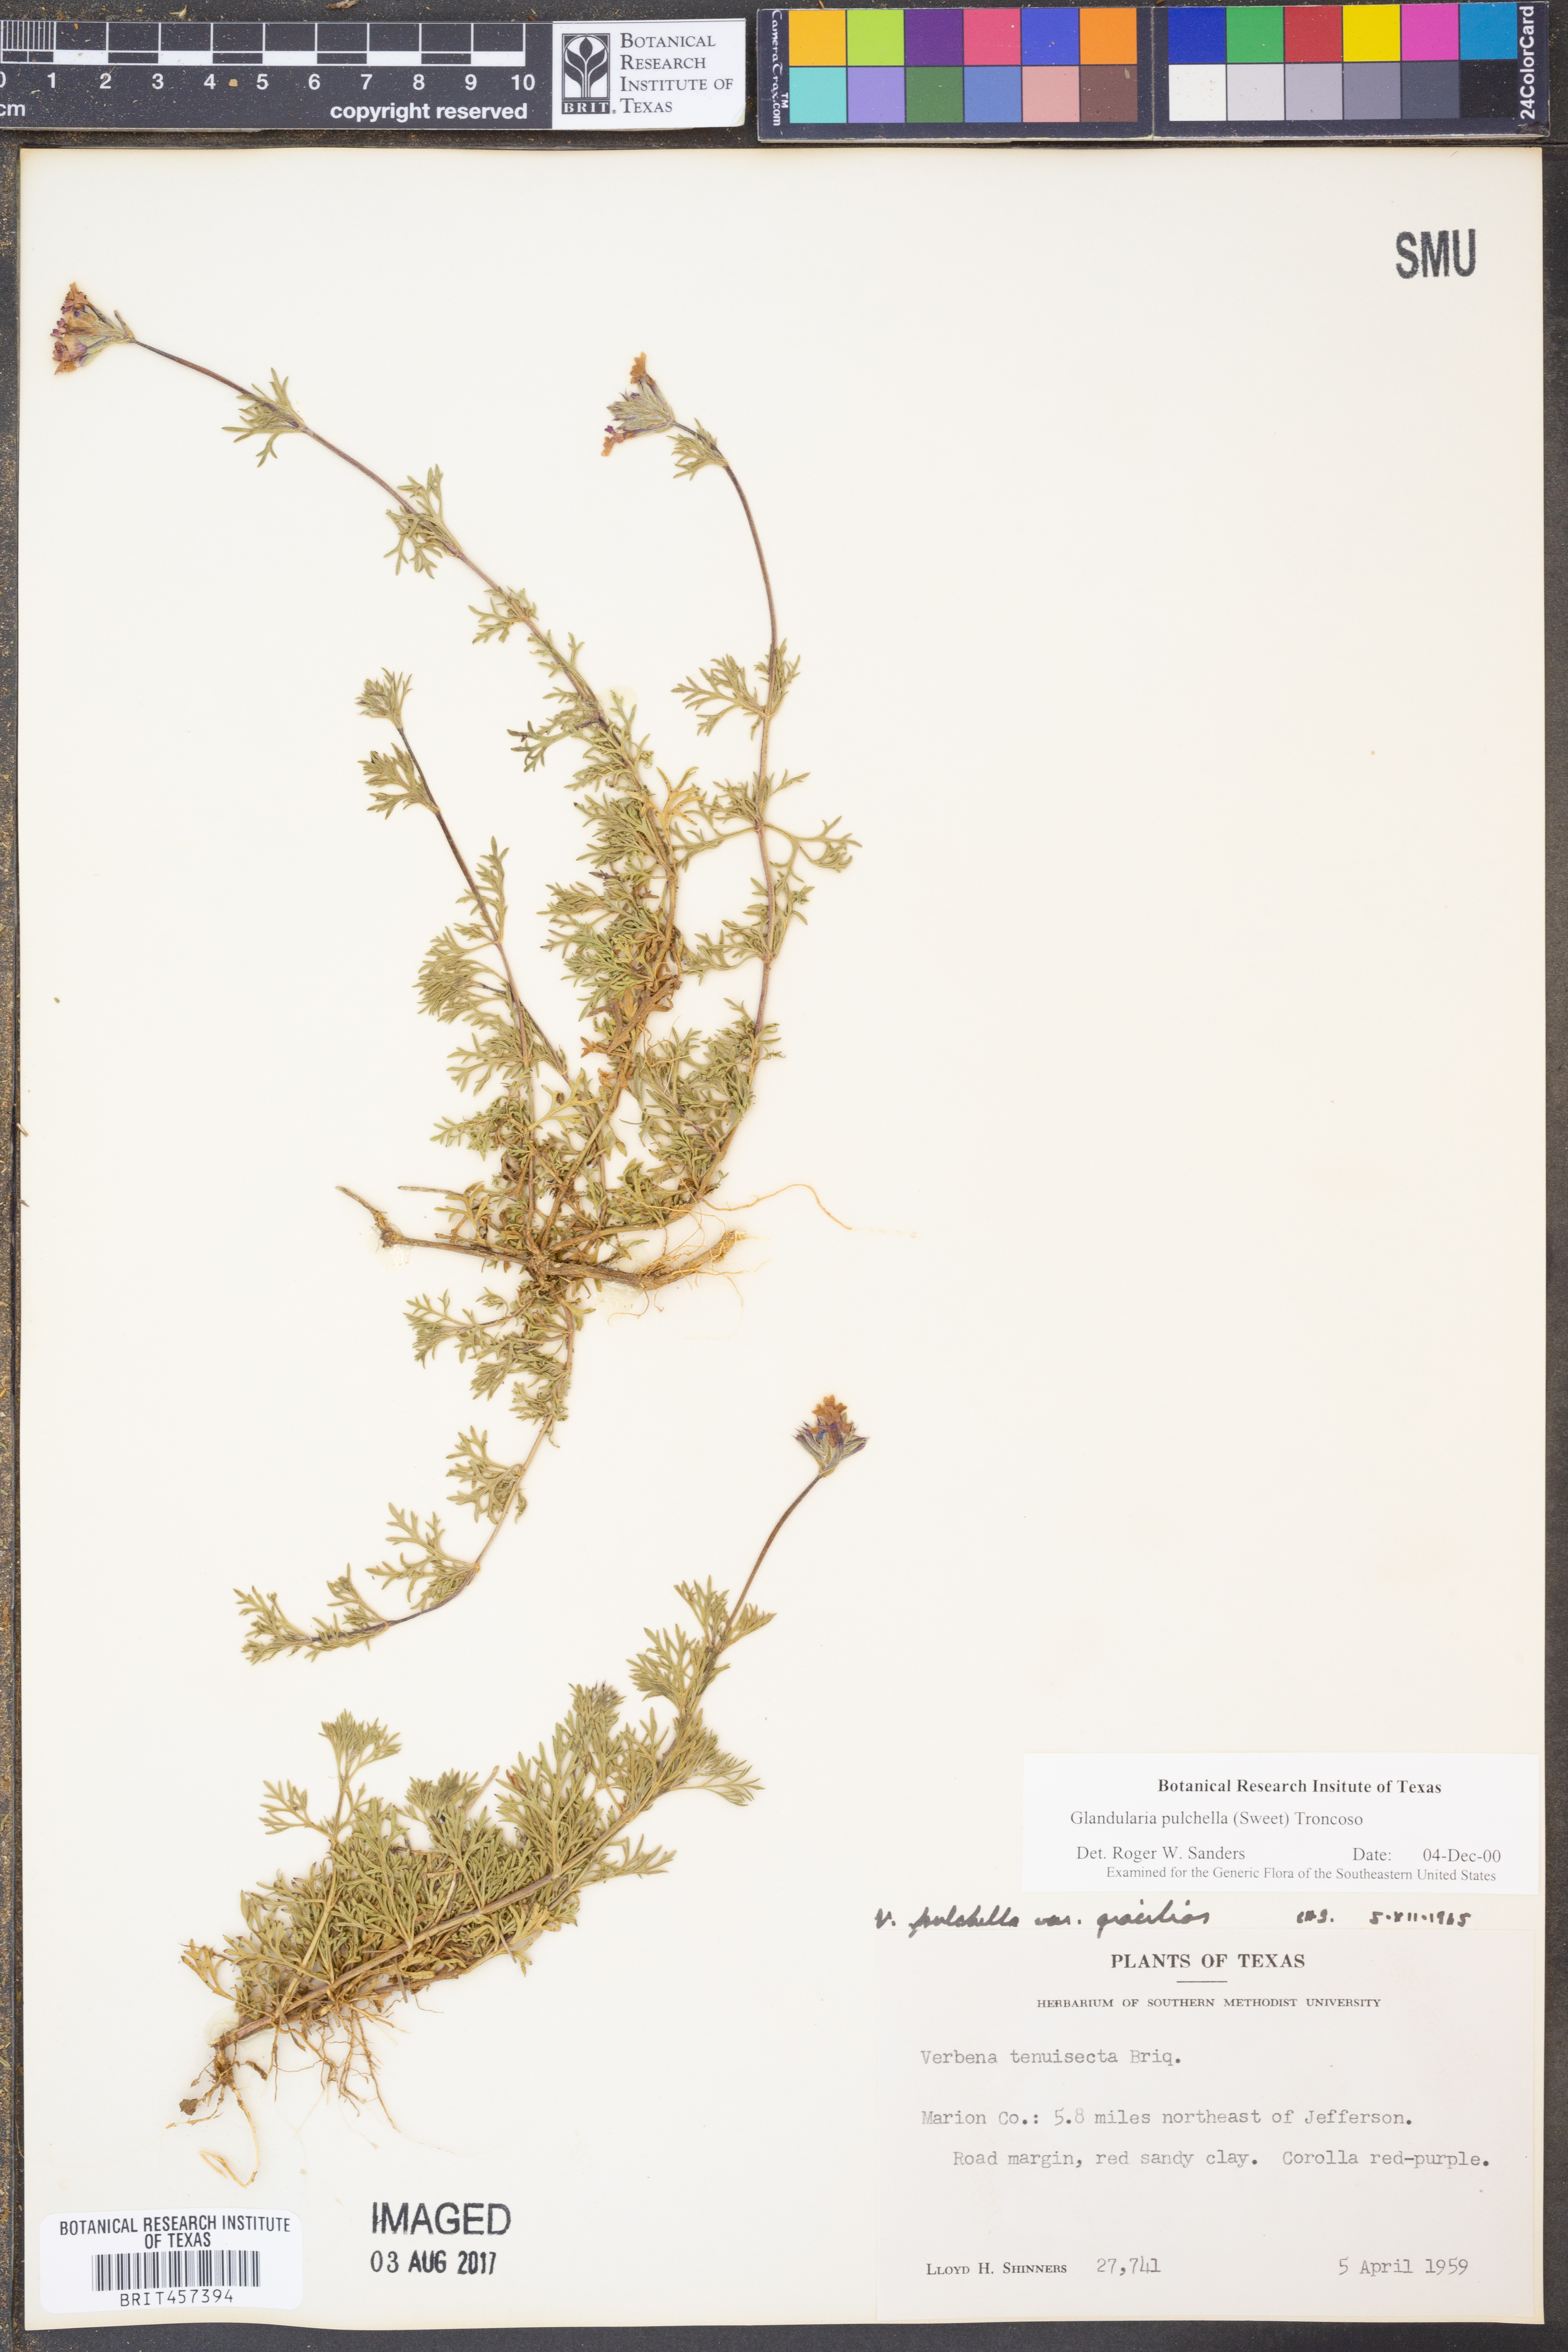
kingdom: Plantae
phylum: Tracheophyta
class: Magnoliopsida
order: Lamiales
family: Verbenaceae
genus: Verbena
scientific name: Verbena tenera
